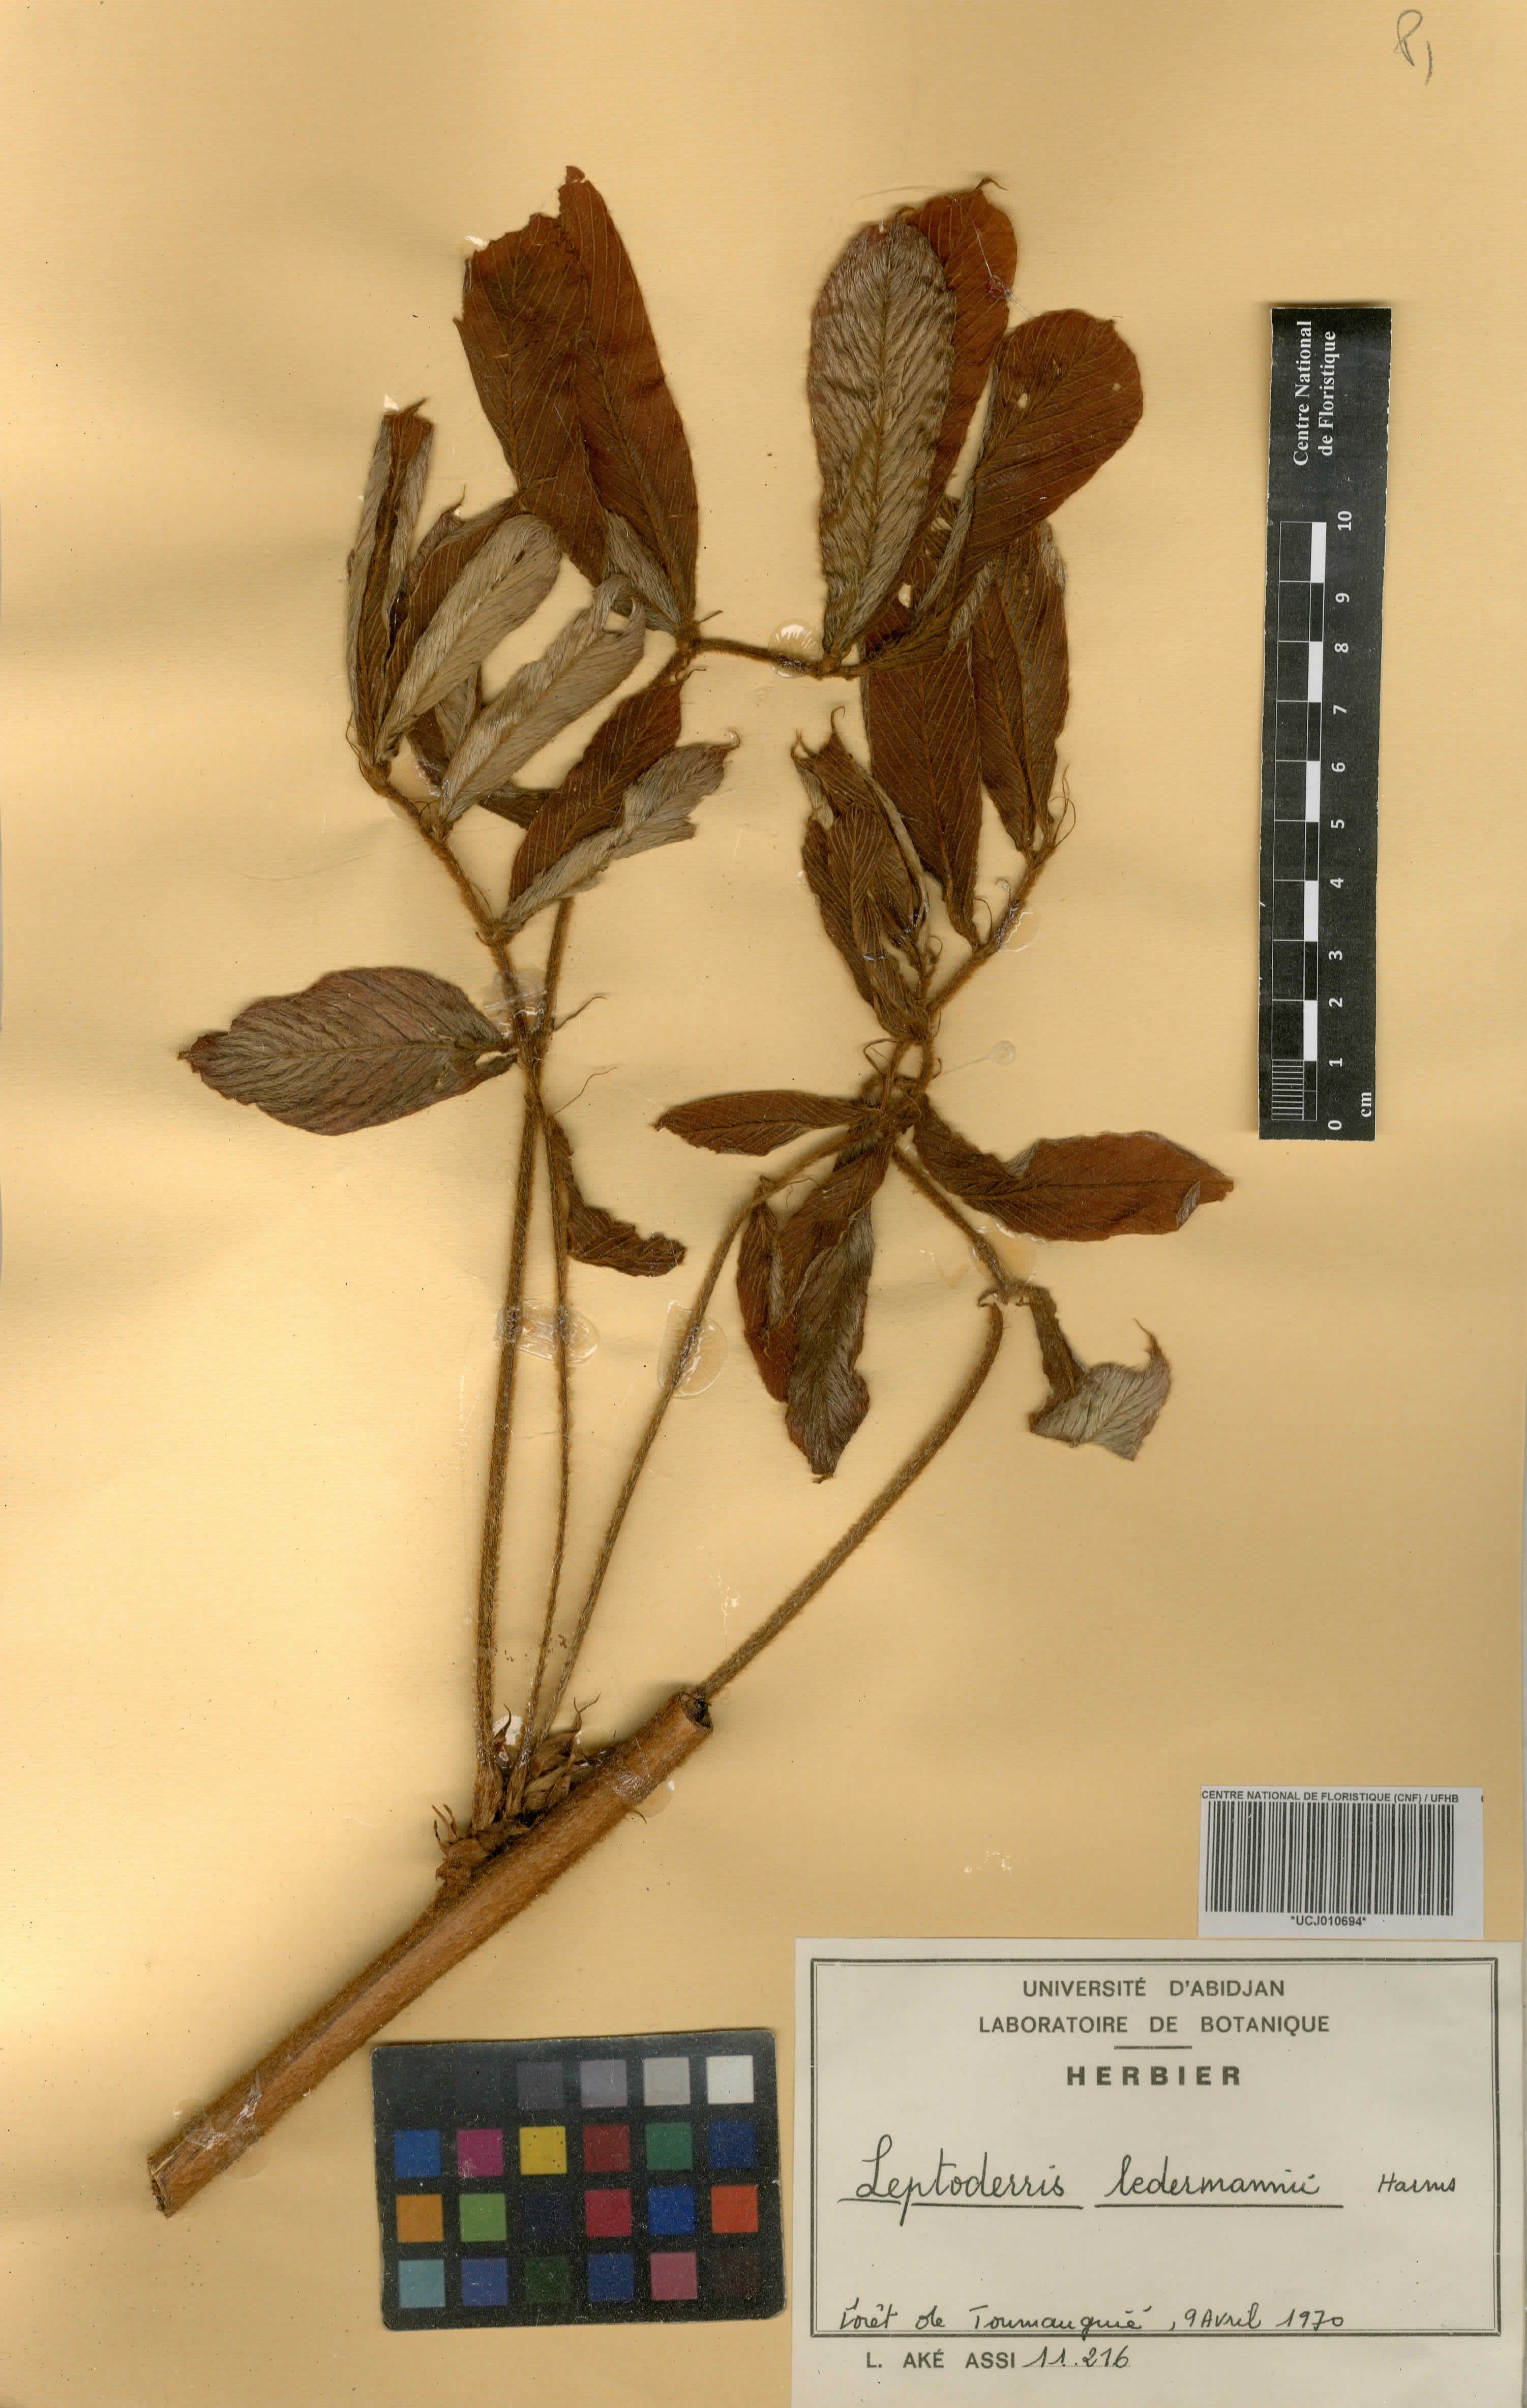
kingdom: Plantae
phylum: Tracheophyta
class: Magnoliopsida
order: Fabales
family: Fabaceae
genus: Leptoderris
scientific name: Leptoderris ledermannii
